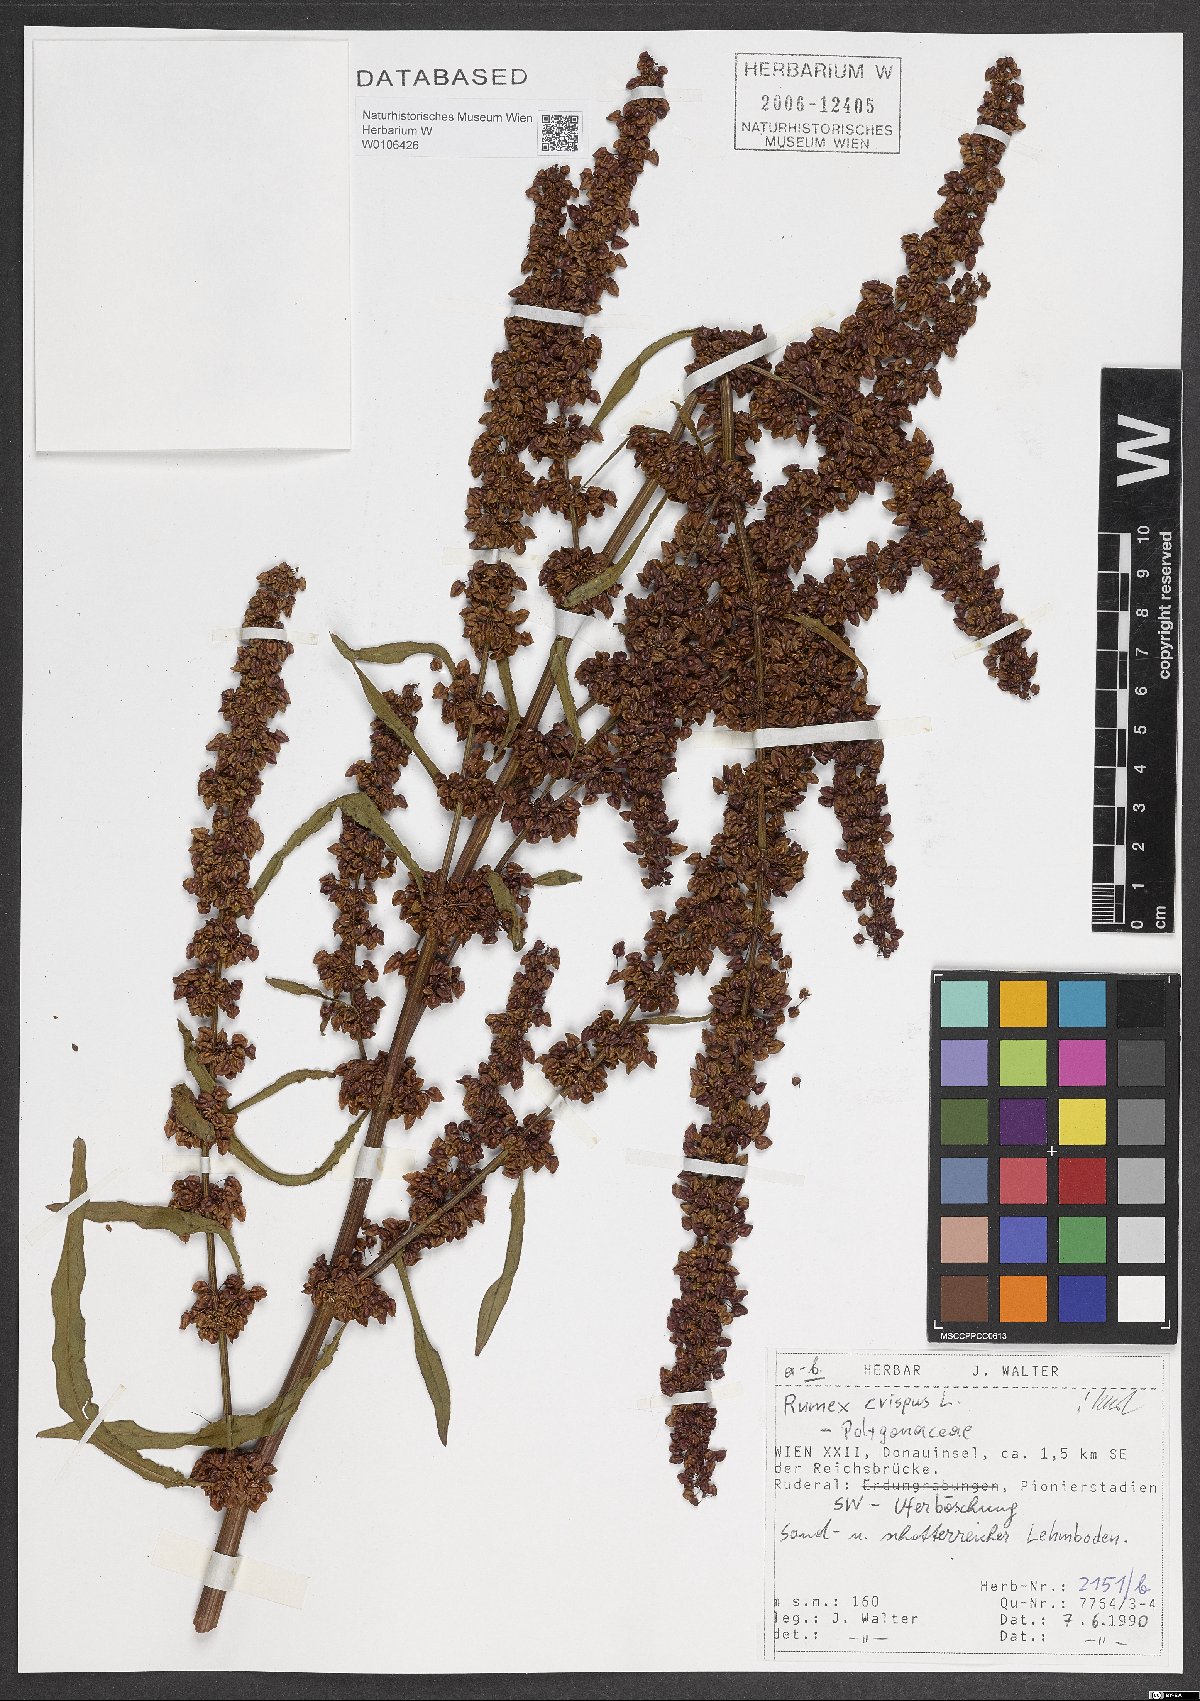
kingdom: Plantae
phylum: Tracheophyta
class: Magnoliopsida
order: Caryophyllales
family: Polygonaceae
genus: Rumex
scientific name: Rumex crispus
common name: Curled dock
